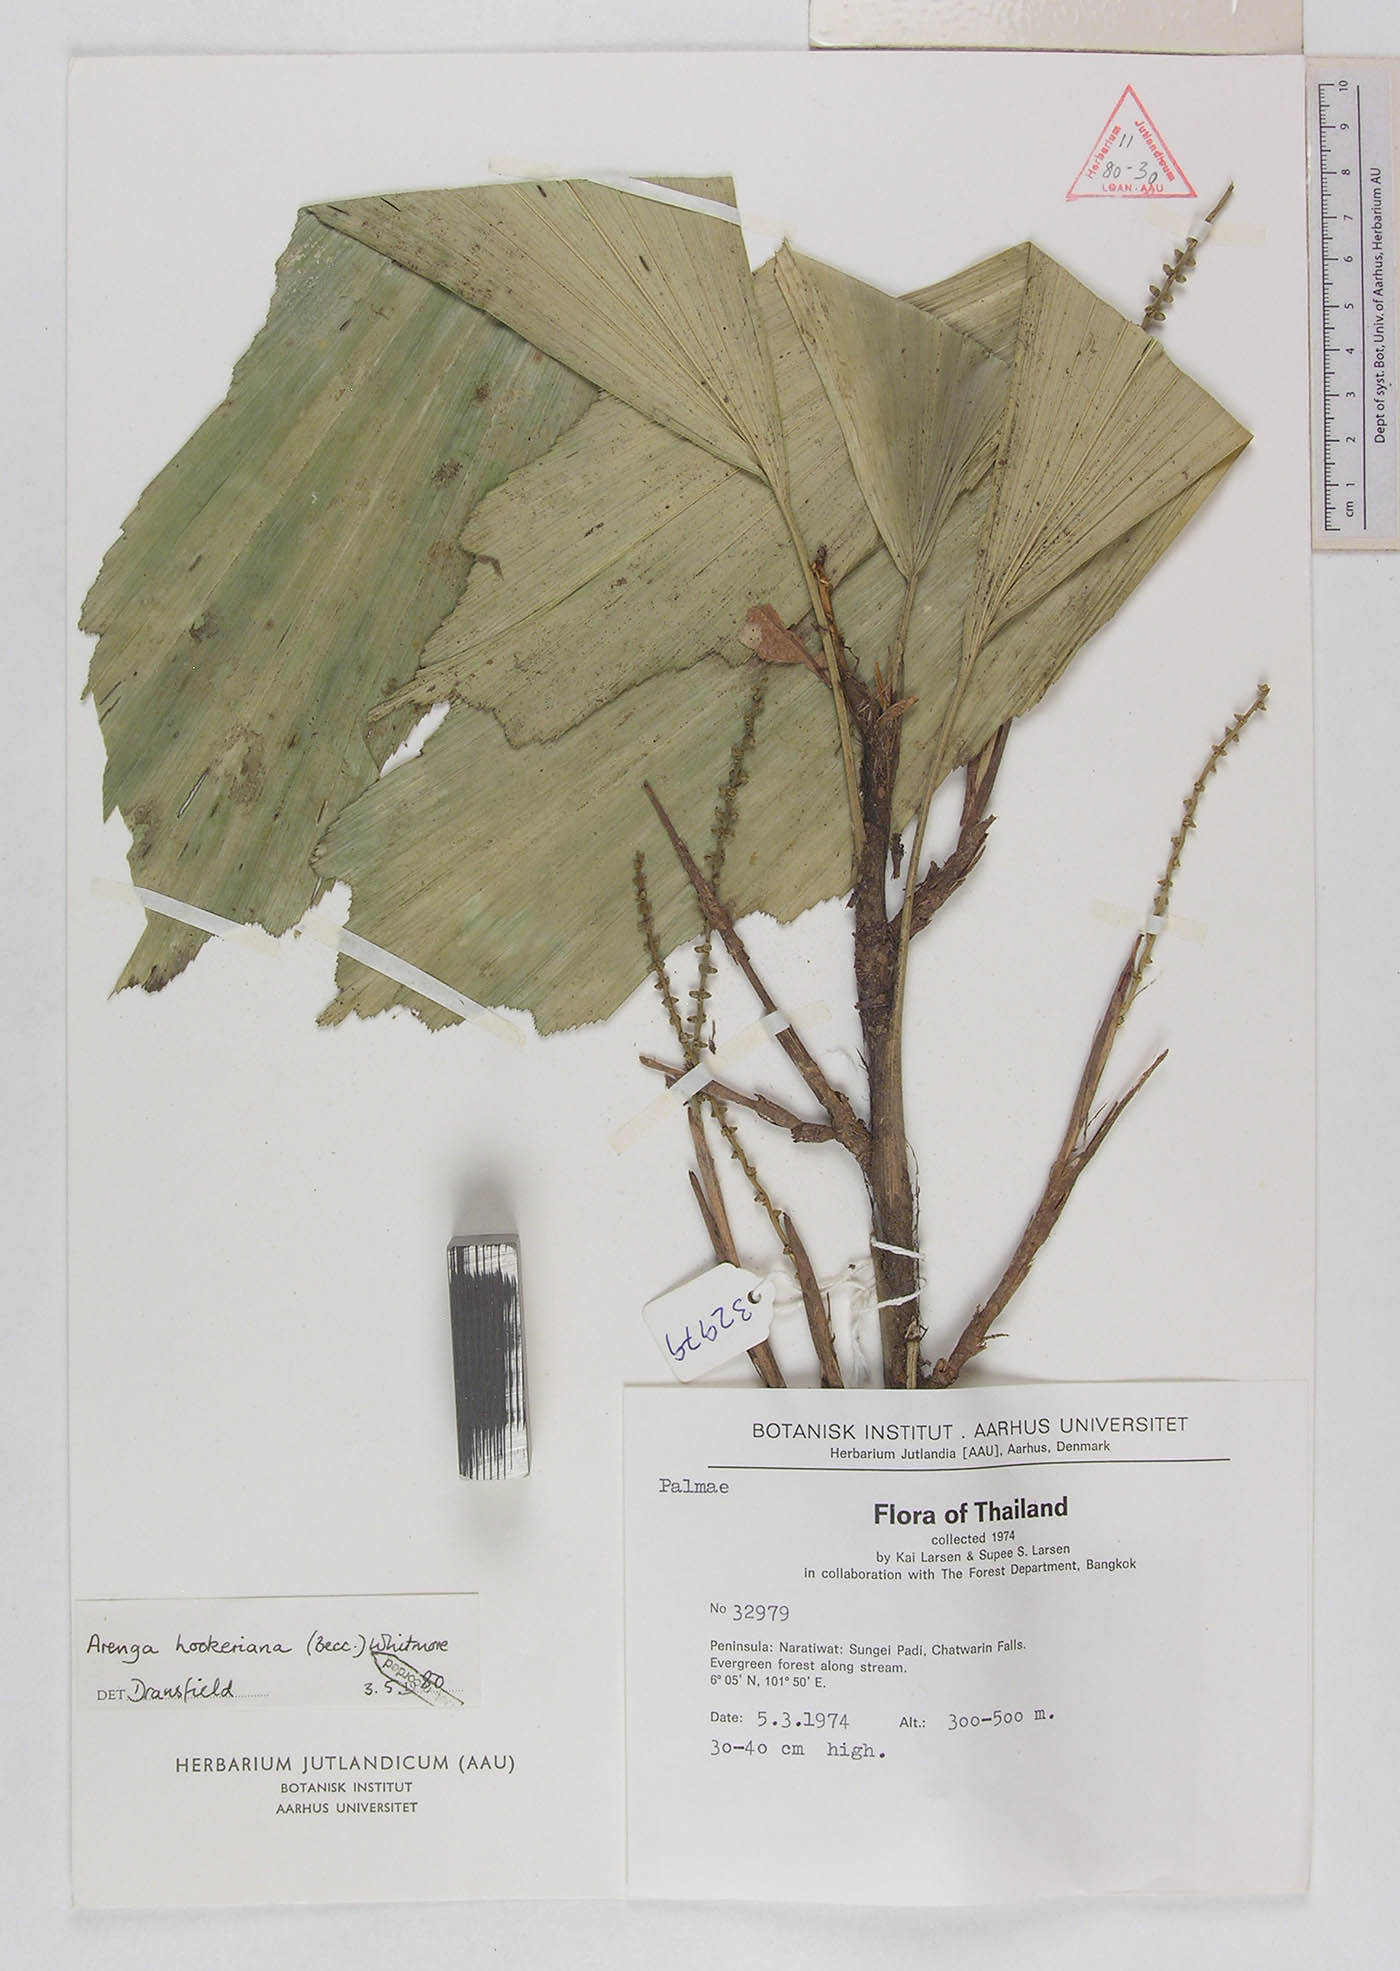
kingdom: Plantae
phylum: Tracheophyta
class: Liliopsida
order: Arecales
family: Arecaceae
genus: Arenga
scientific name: Arenga hookeriana
